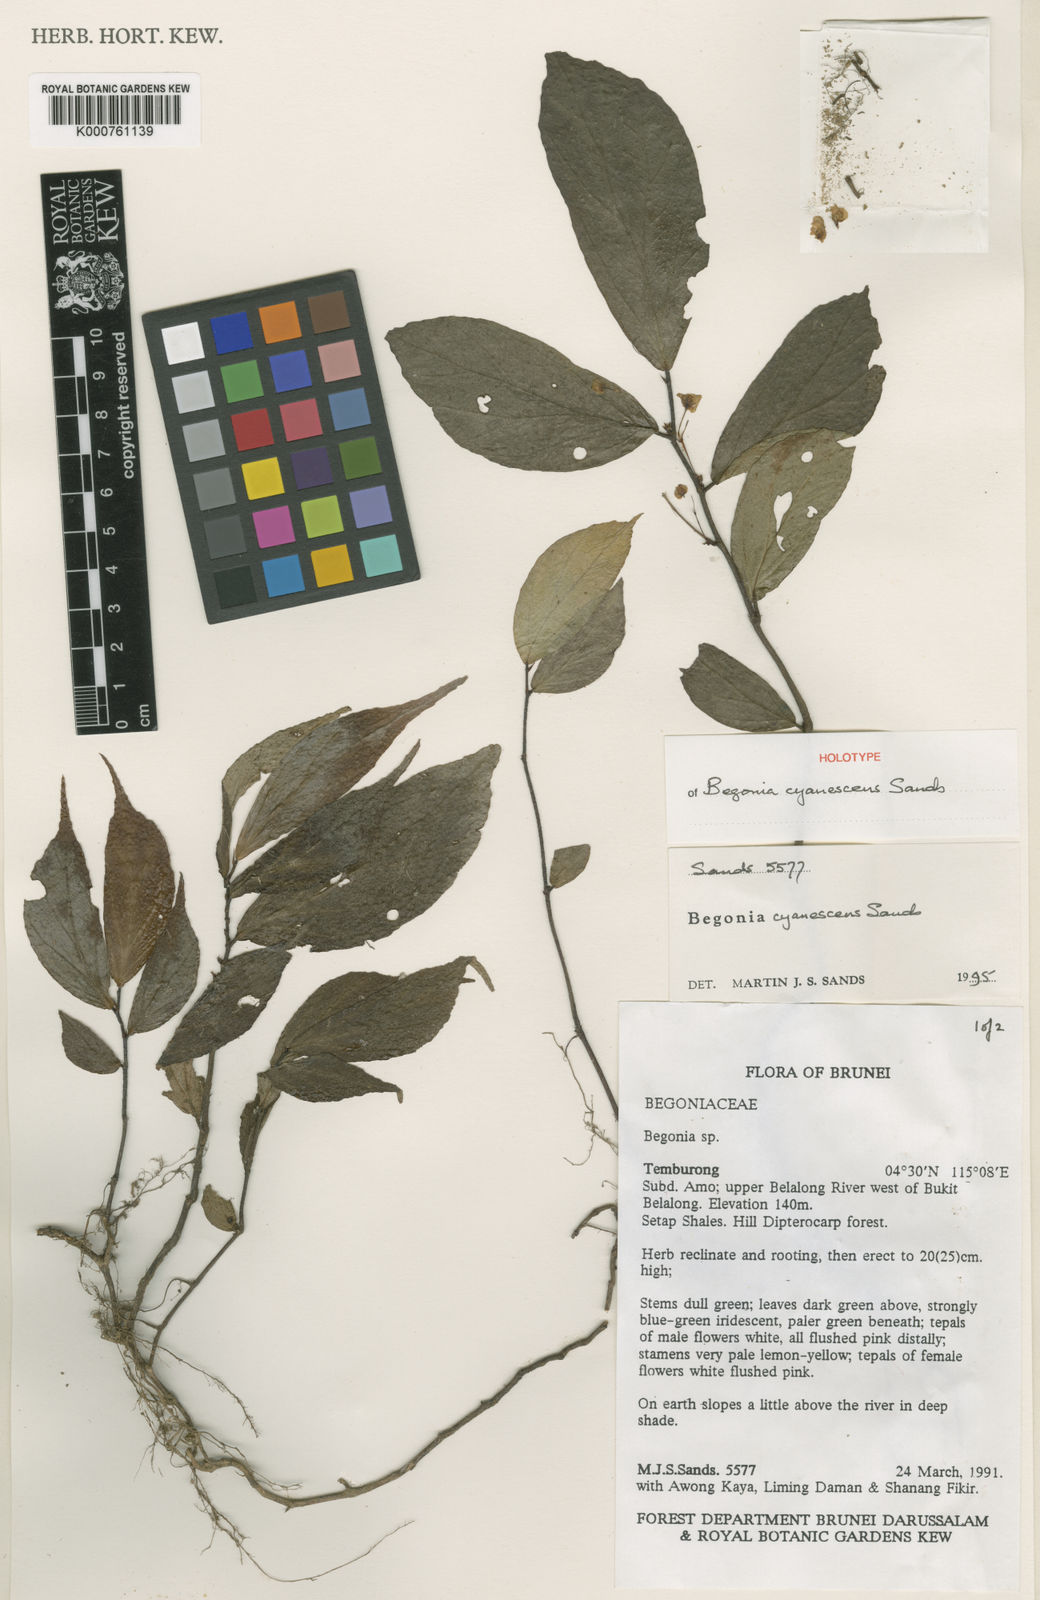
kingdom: Plantae
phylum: Tracheophyta
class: Magnoliopsida
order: Cucurbitales
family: Begoniaceae
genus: Begonia
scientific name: Begonia cyanescens
